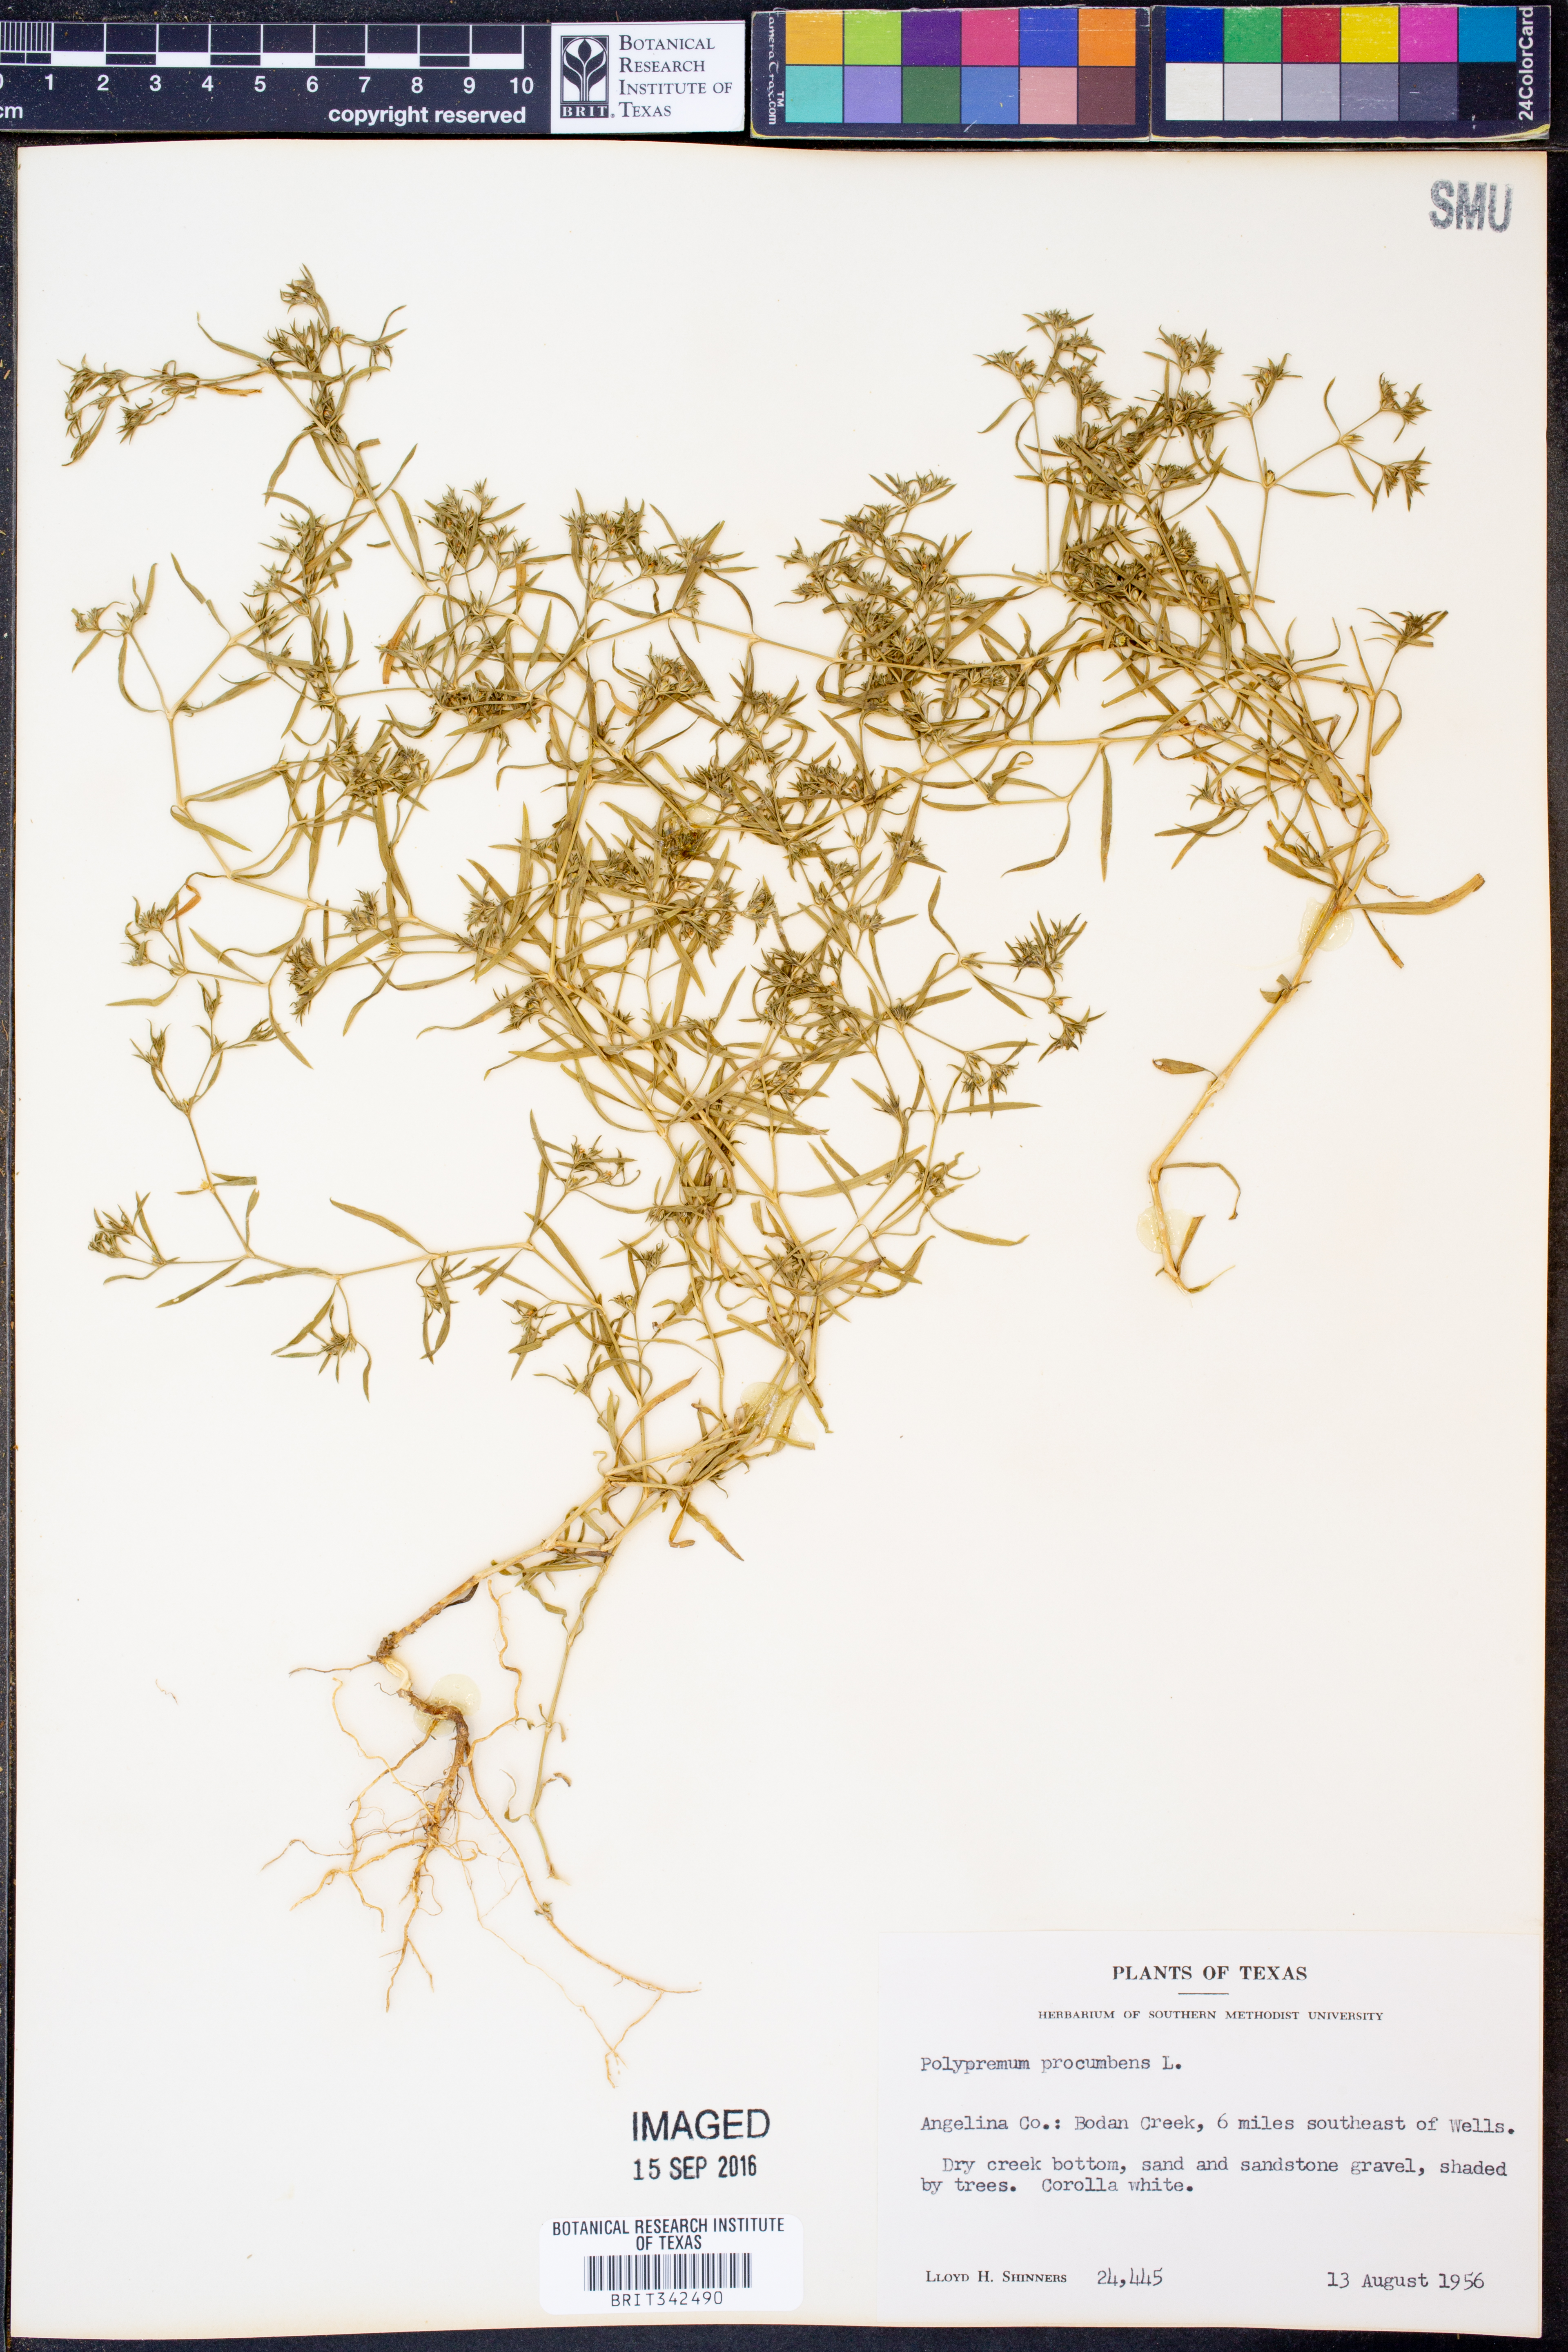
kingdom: Plantae
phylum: Tracheophyta
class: Magnoliopsida
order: Lamiales
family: Tetrachondraceae
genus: Polypremum
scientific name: Polypremum procumbens
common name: Juniper-leaf
